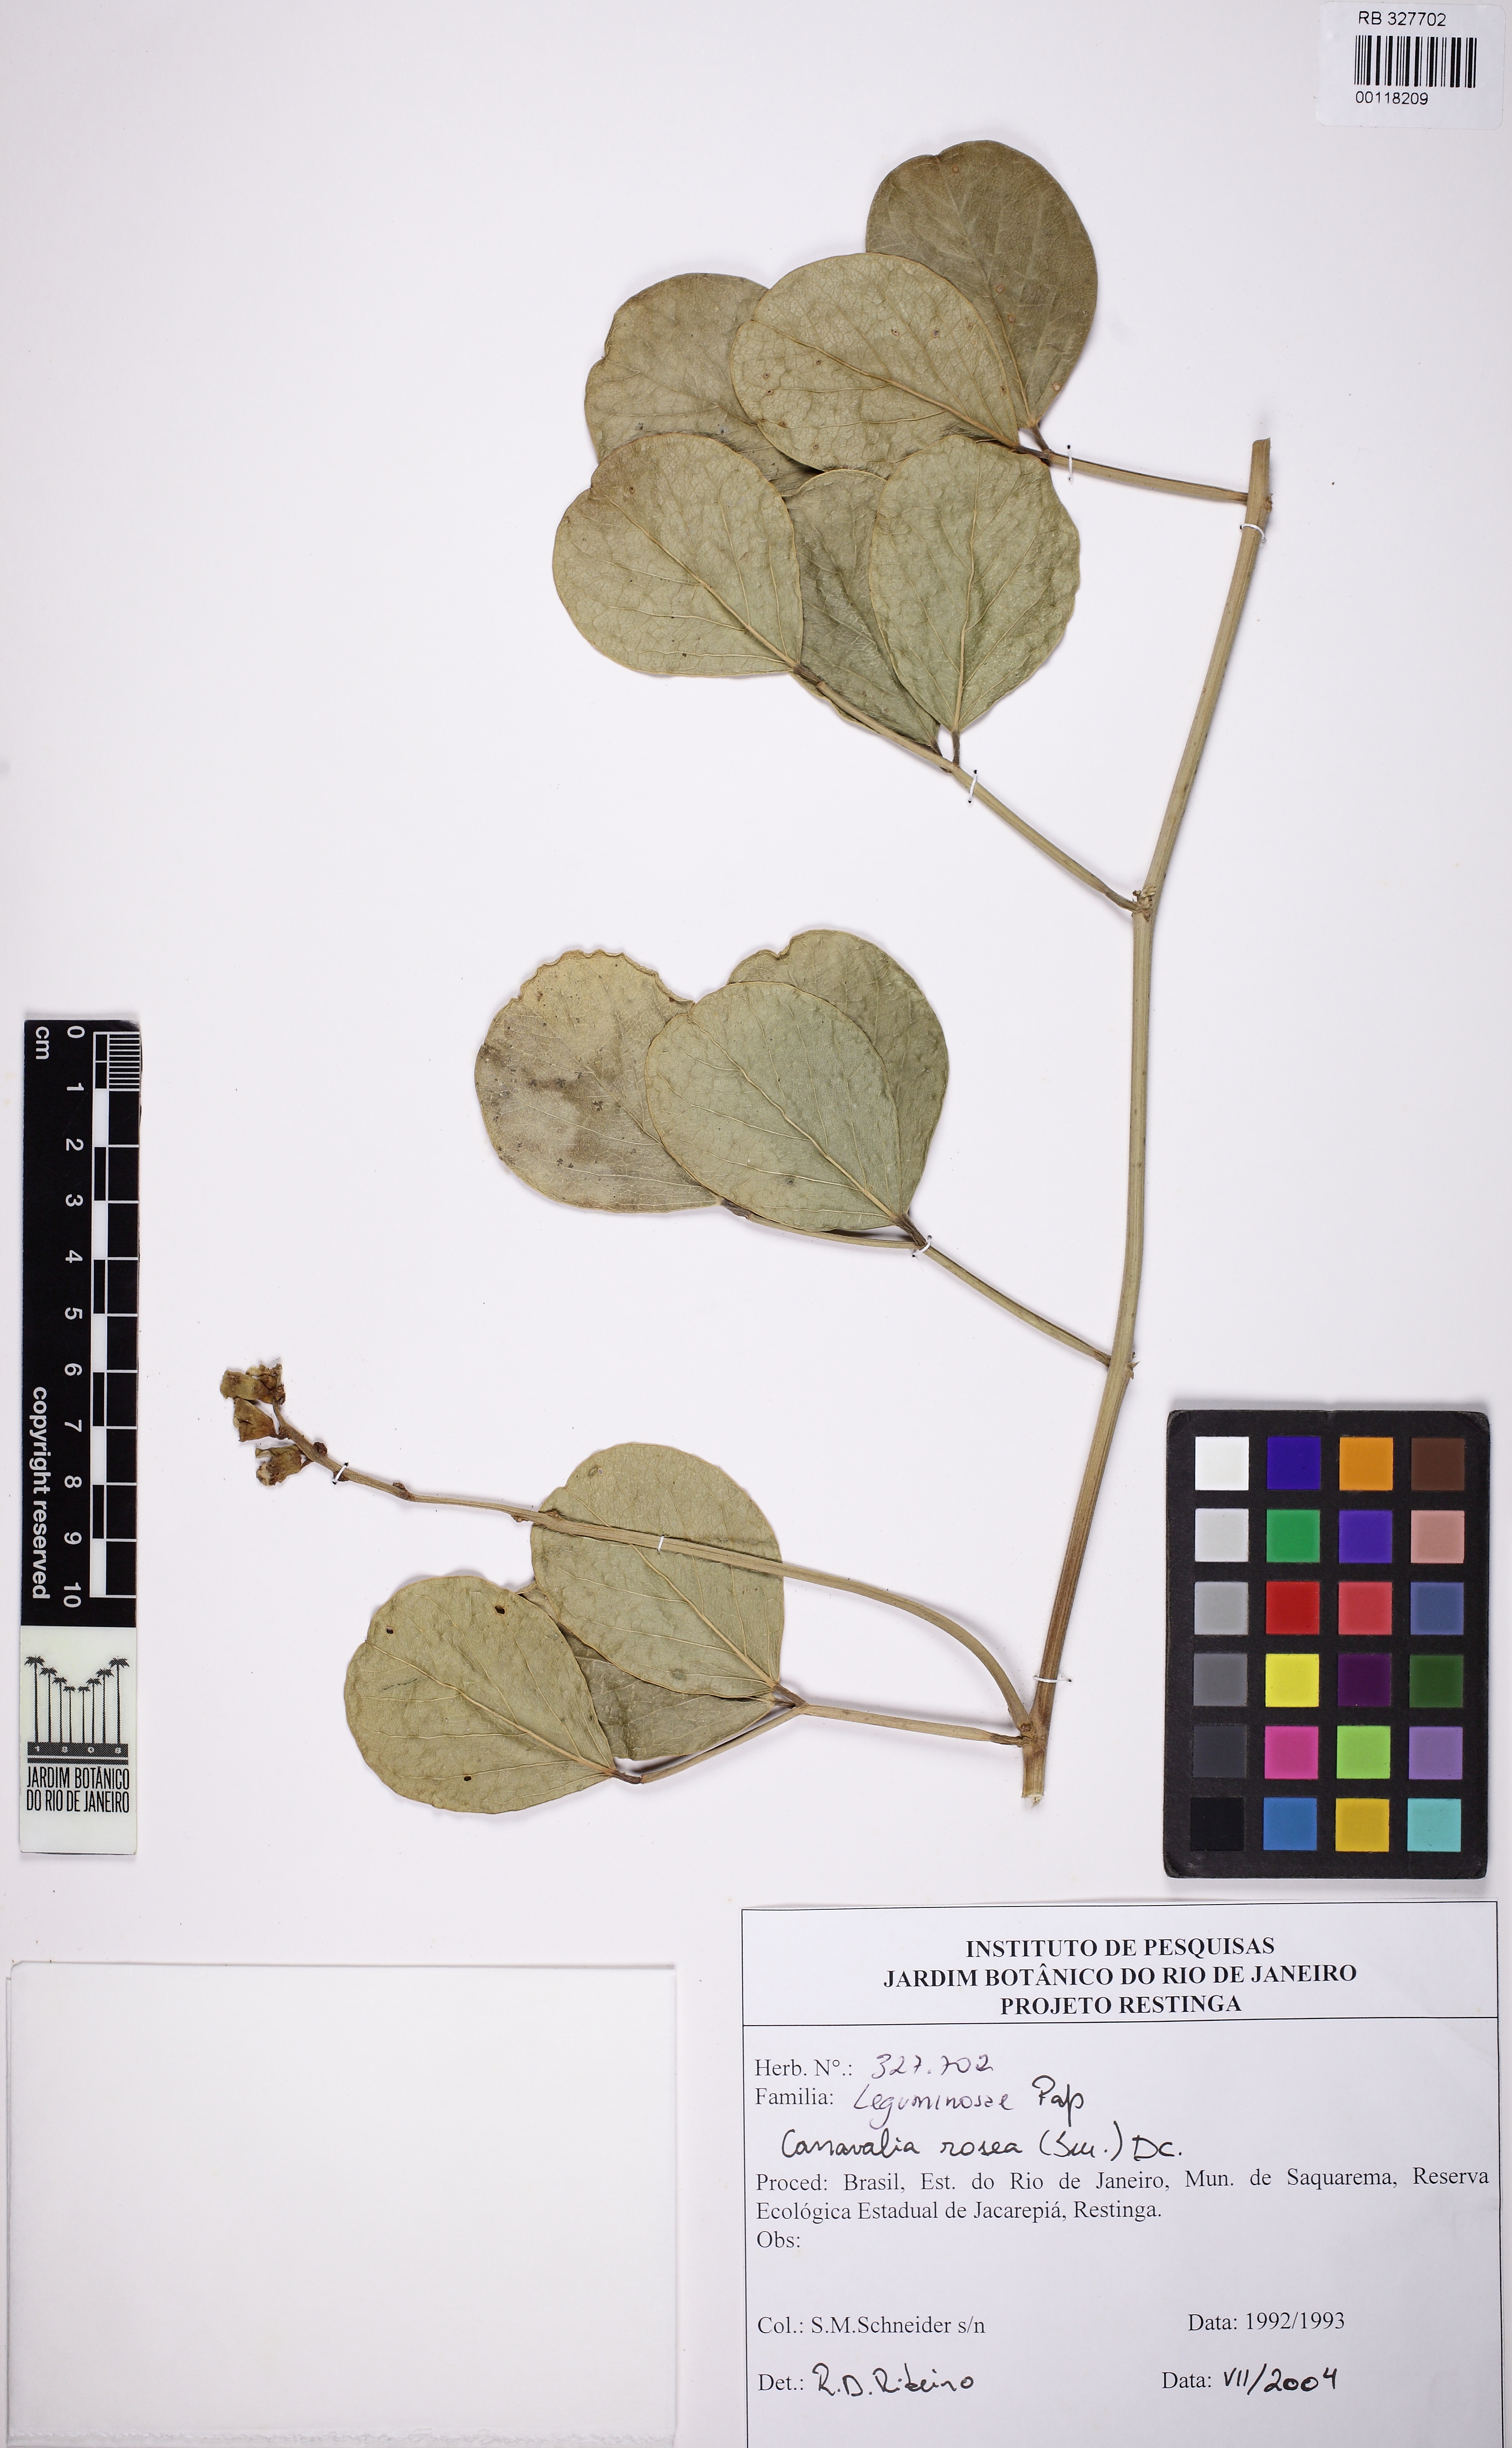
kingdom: Plantae
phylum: Tracheophyta
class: Magnoliopsida
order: Fabales
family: Fabaceae
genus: Canavalia
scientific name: Canavalia rosea
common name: Beach-bean
